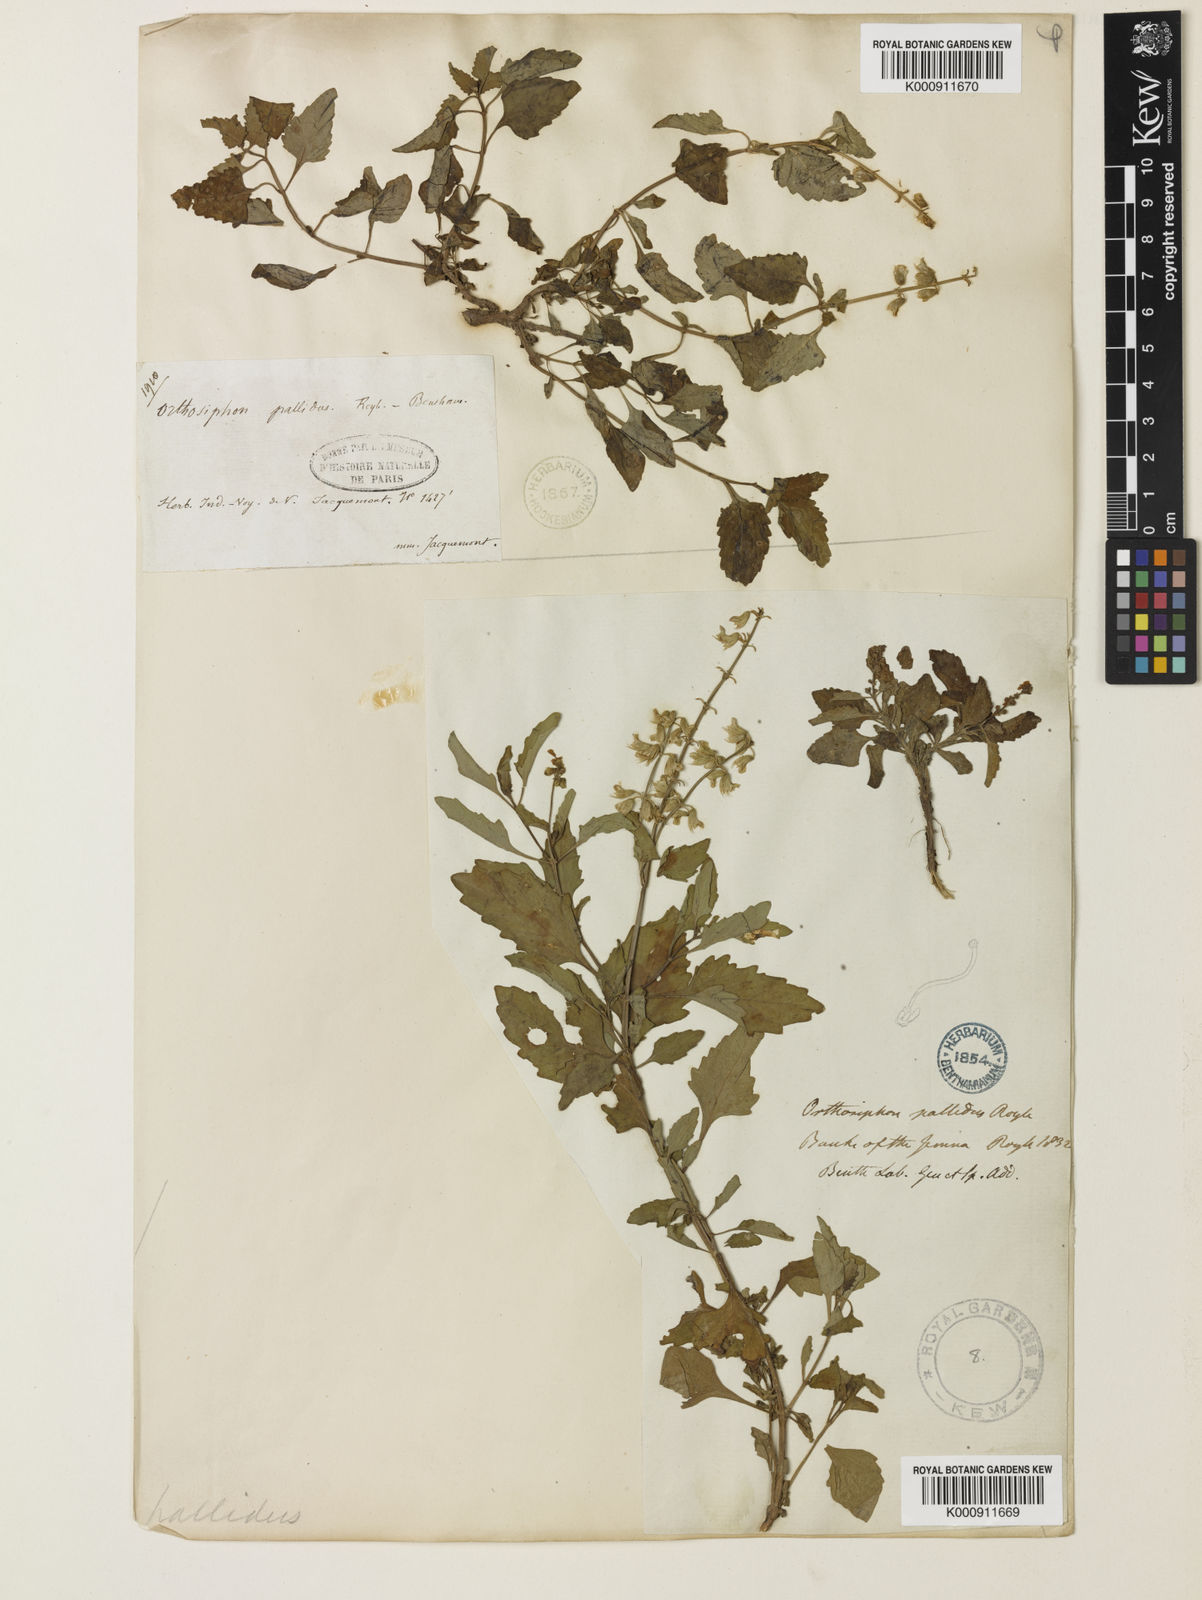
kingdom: Plantae
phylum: Tracheophyta
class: Magnoliopsida
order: Lamiales
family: Lamiaceae
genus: Orthosiphon
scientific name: Orthosiphon pallidus
